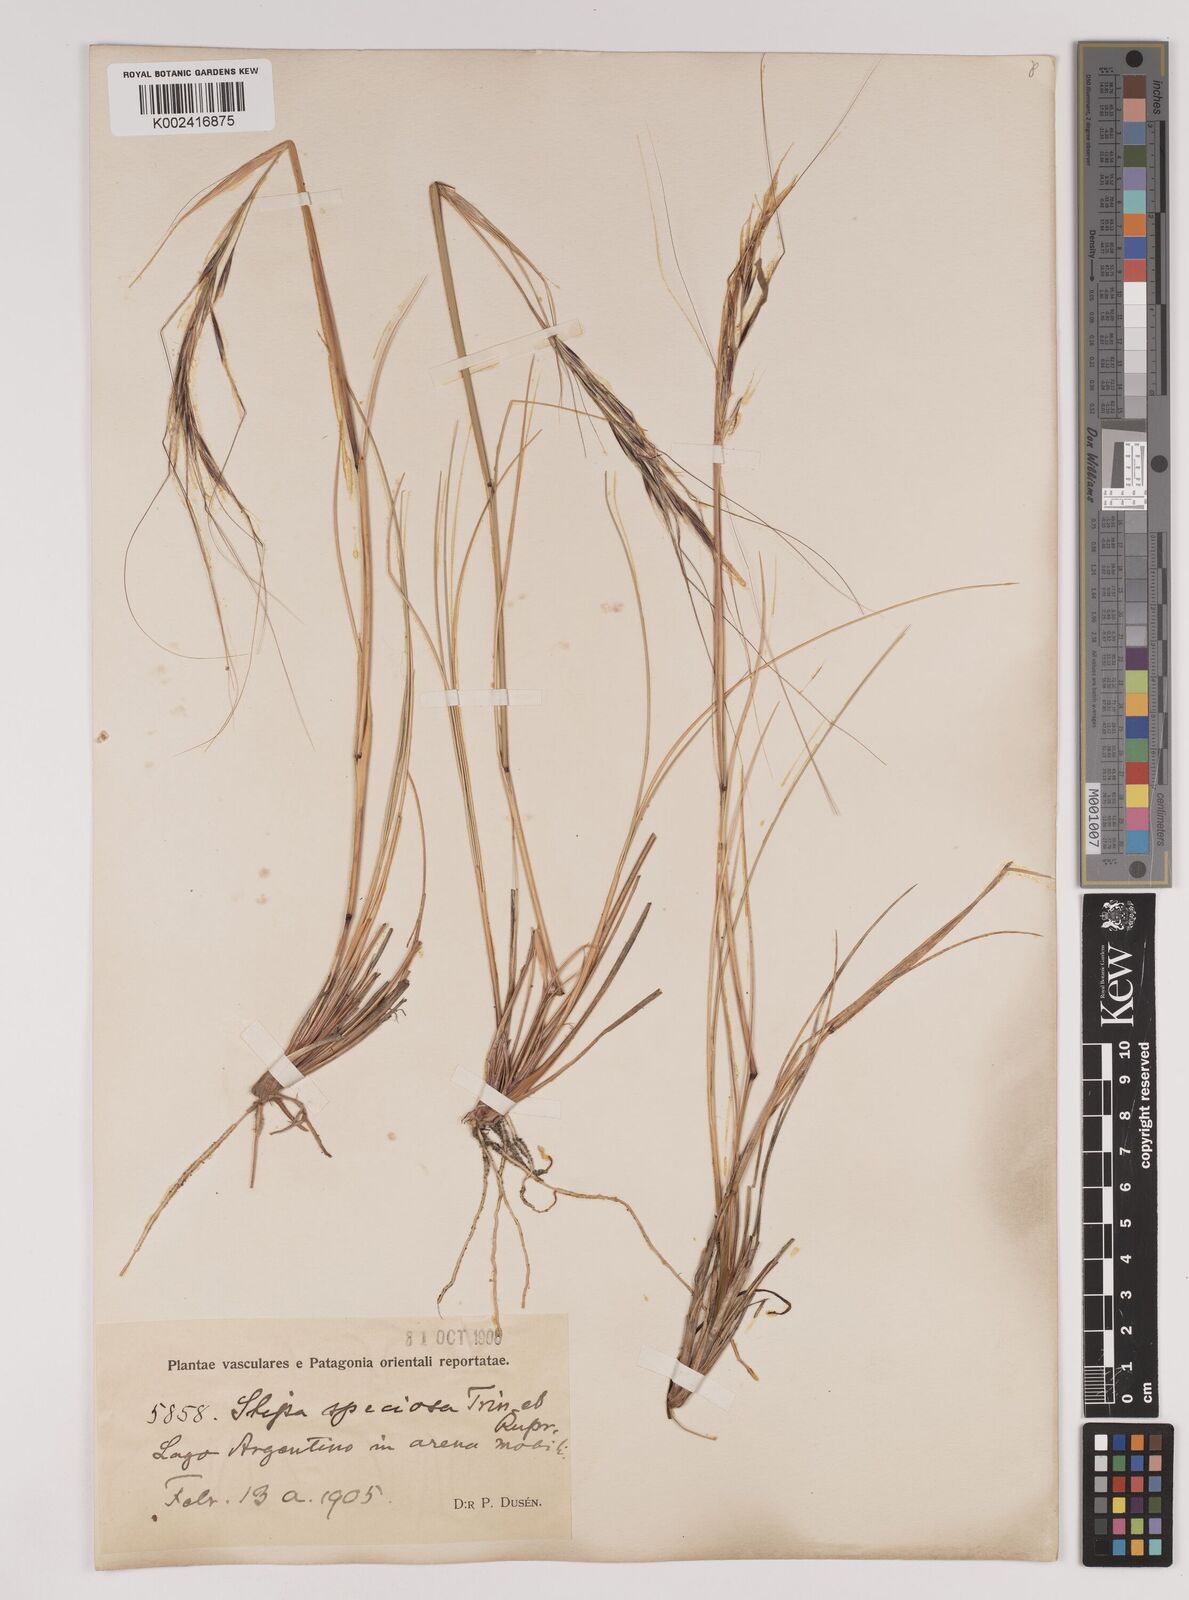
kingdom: Plantae
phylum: Tracheophyta
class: Liliopsida
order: Poales
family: Poaceae
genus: Pappostipa
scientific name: Pappostipa patagonica
